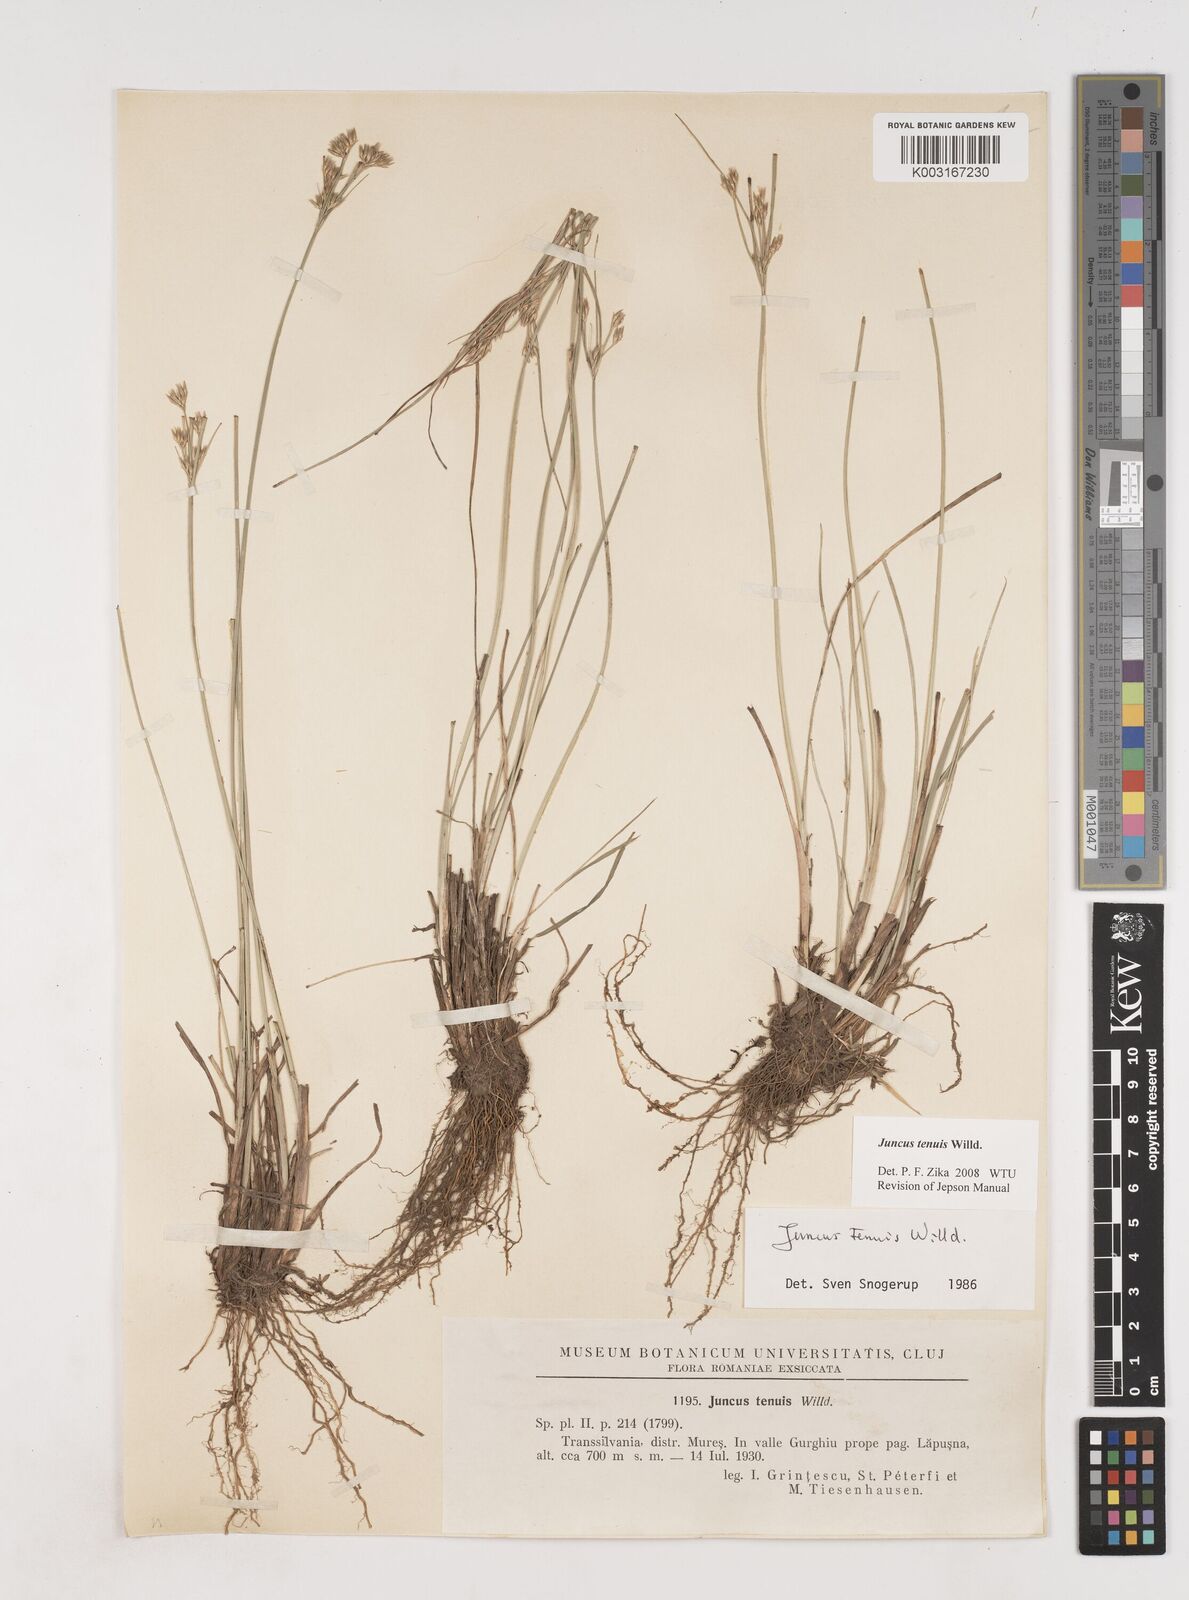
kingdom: Plantae
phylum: Tracheophyta
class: Liliopsida
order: Poales
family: Juncaceae
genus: Juncus
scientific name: Juncus tenuis
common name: Slender rush
